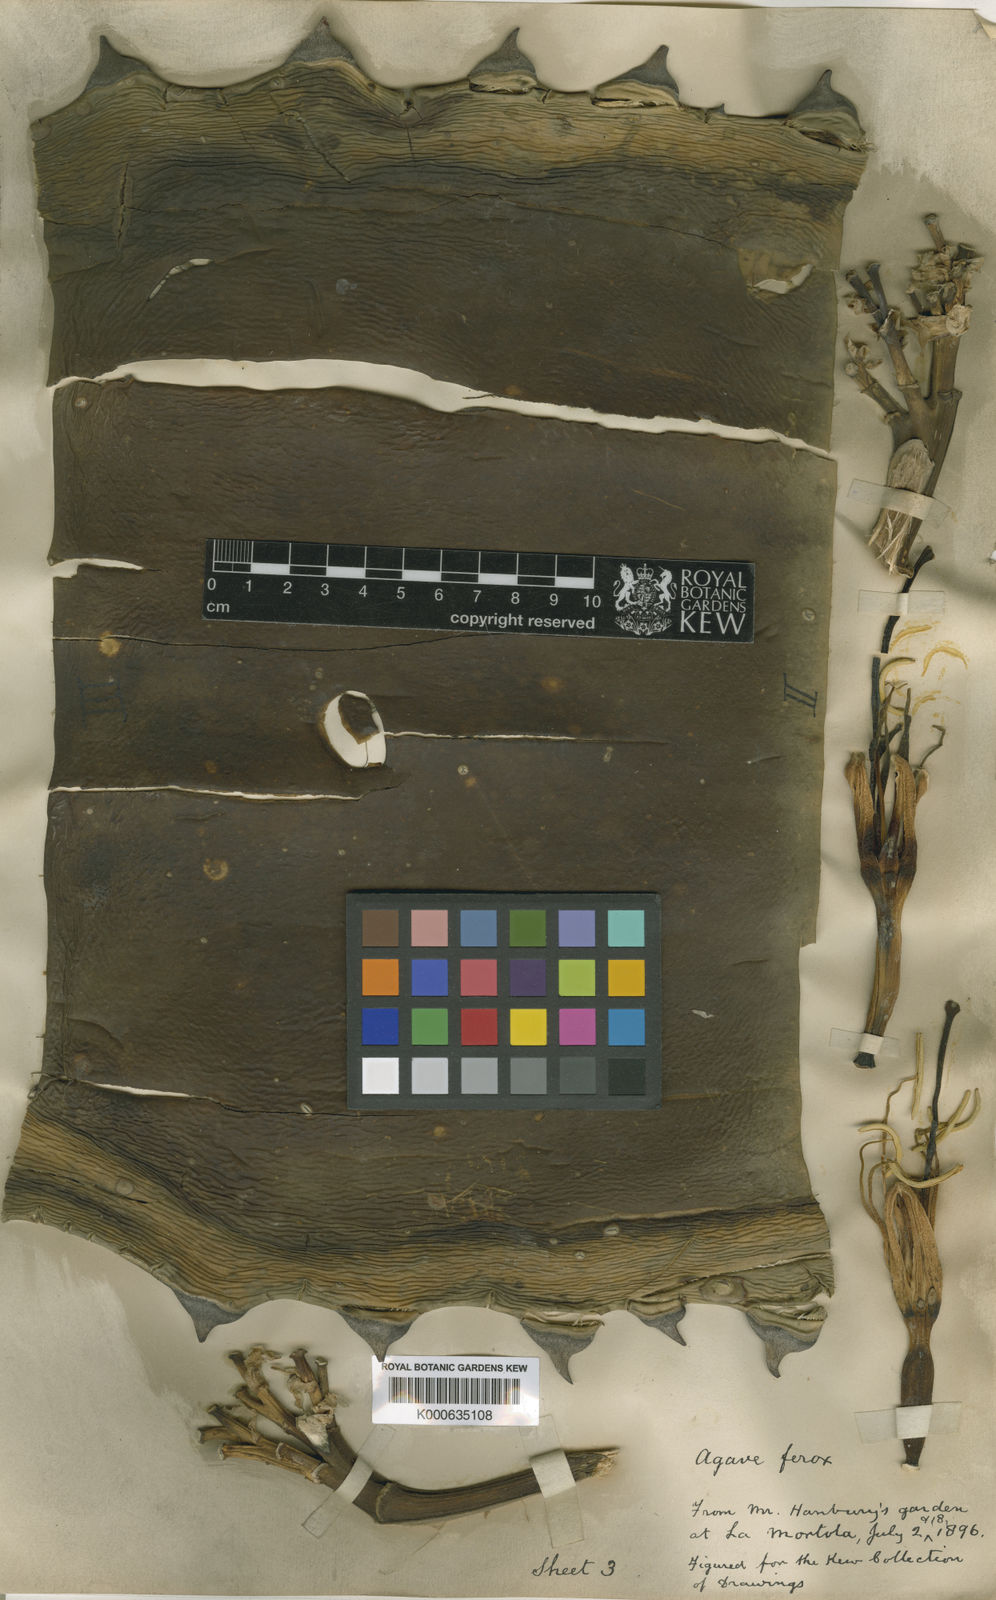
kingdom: Plantae
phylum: Tracheophyta
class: Liliopsida
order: Asparagales
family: Asparagaceae
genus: Agave
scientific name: Agave salmiana
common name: Pulque agave
